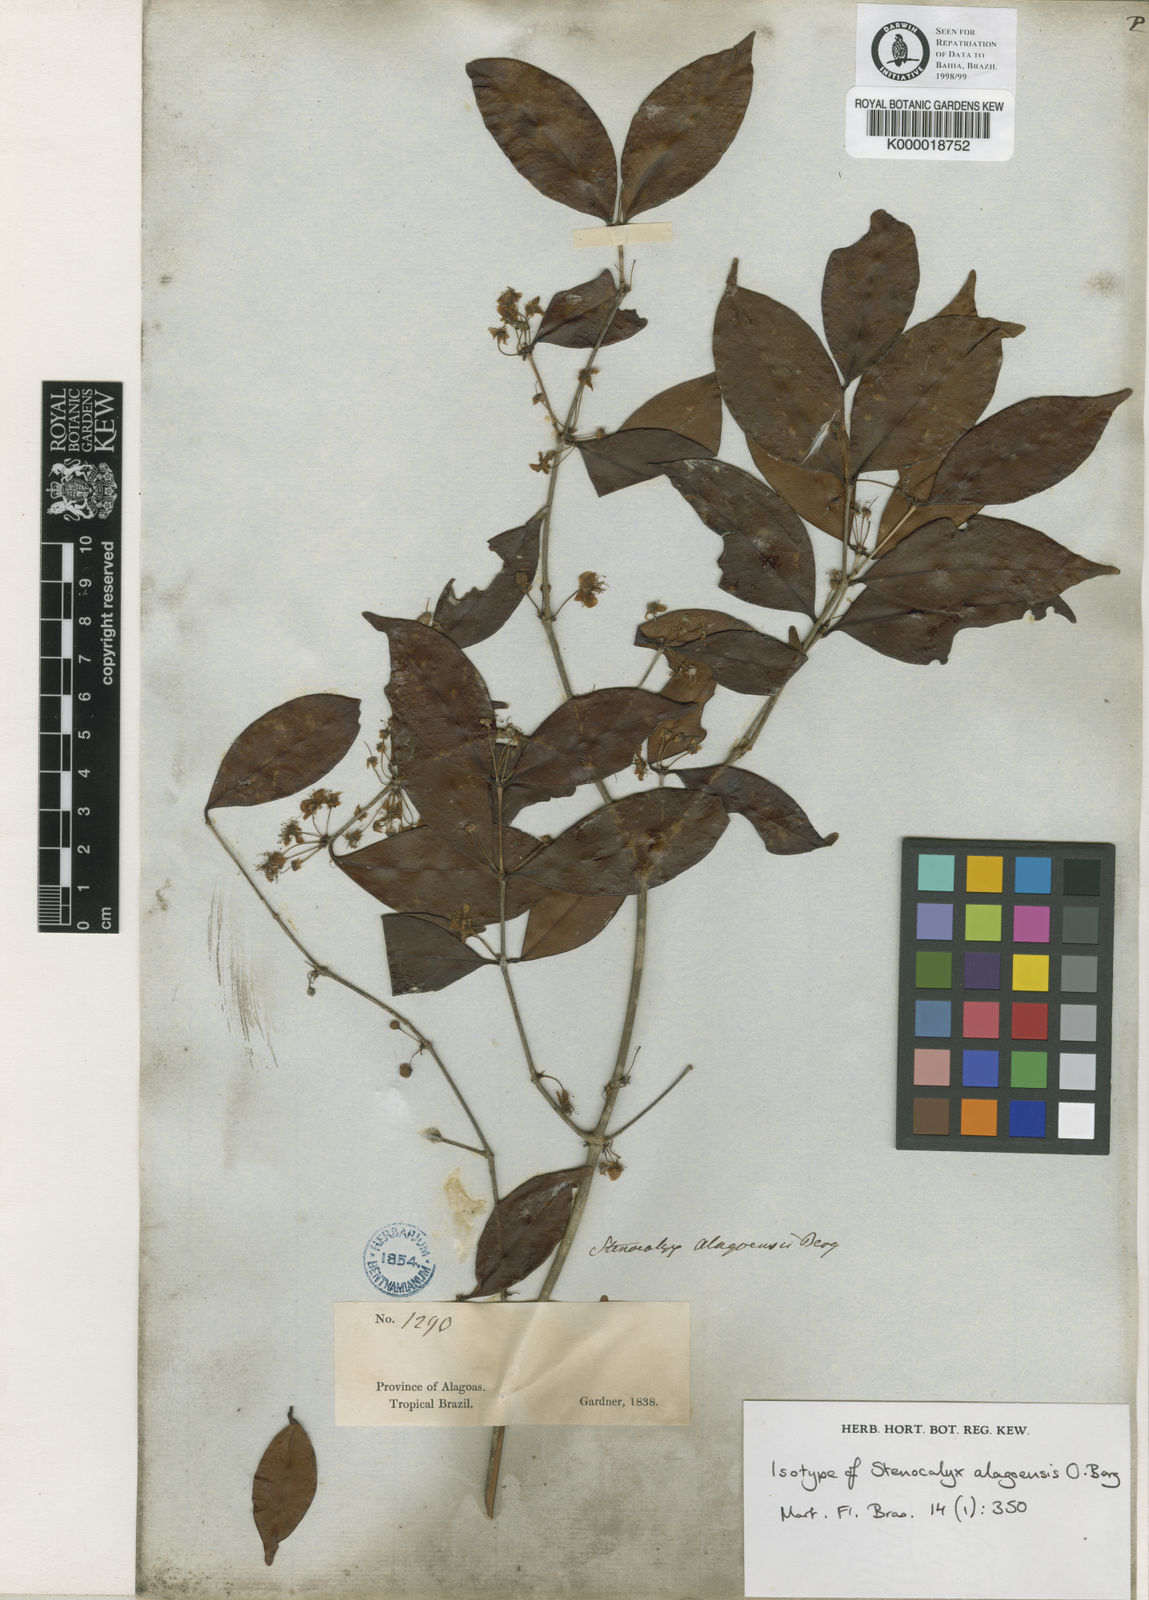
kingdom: Plantae
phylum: Tracheophyta
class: Magnoliopsida
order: Myrtales
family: Myrtaceae
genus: Eugenia
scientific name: Eugenia alagoensis
